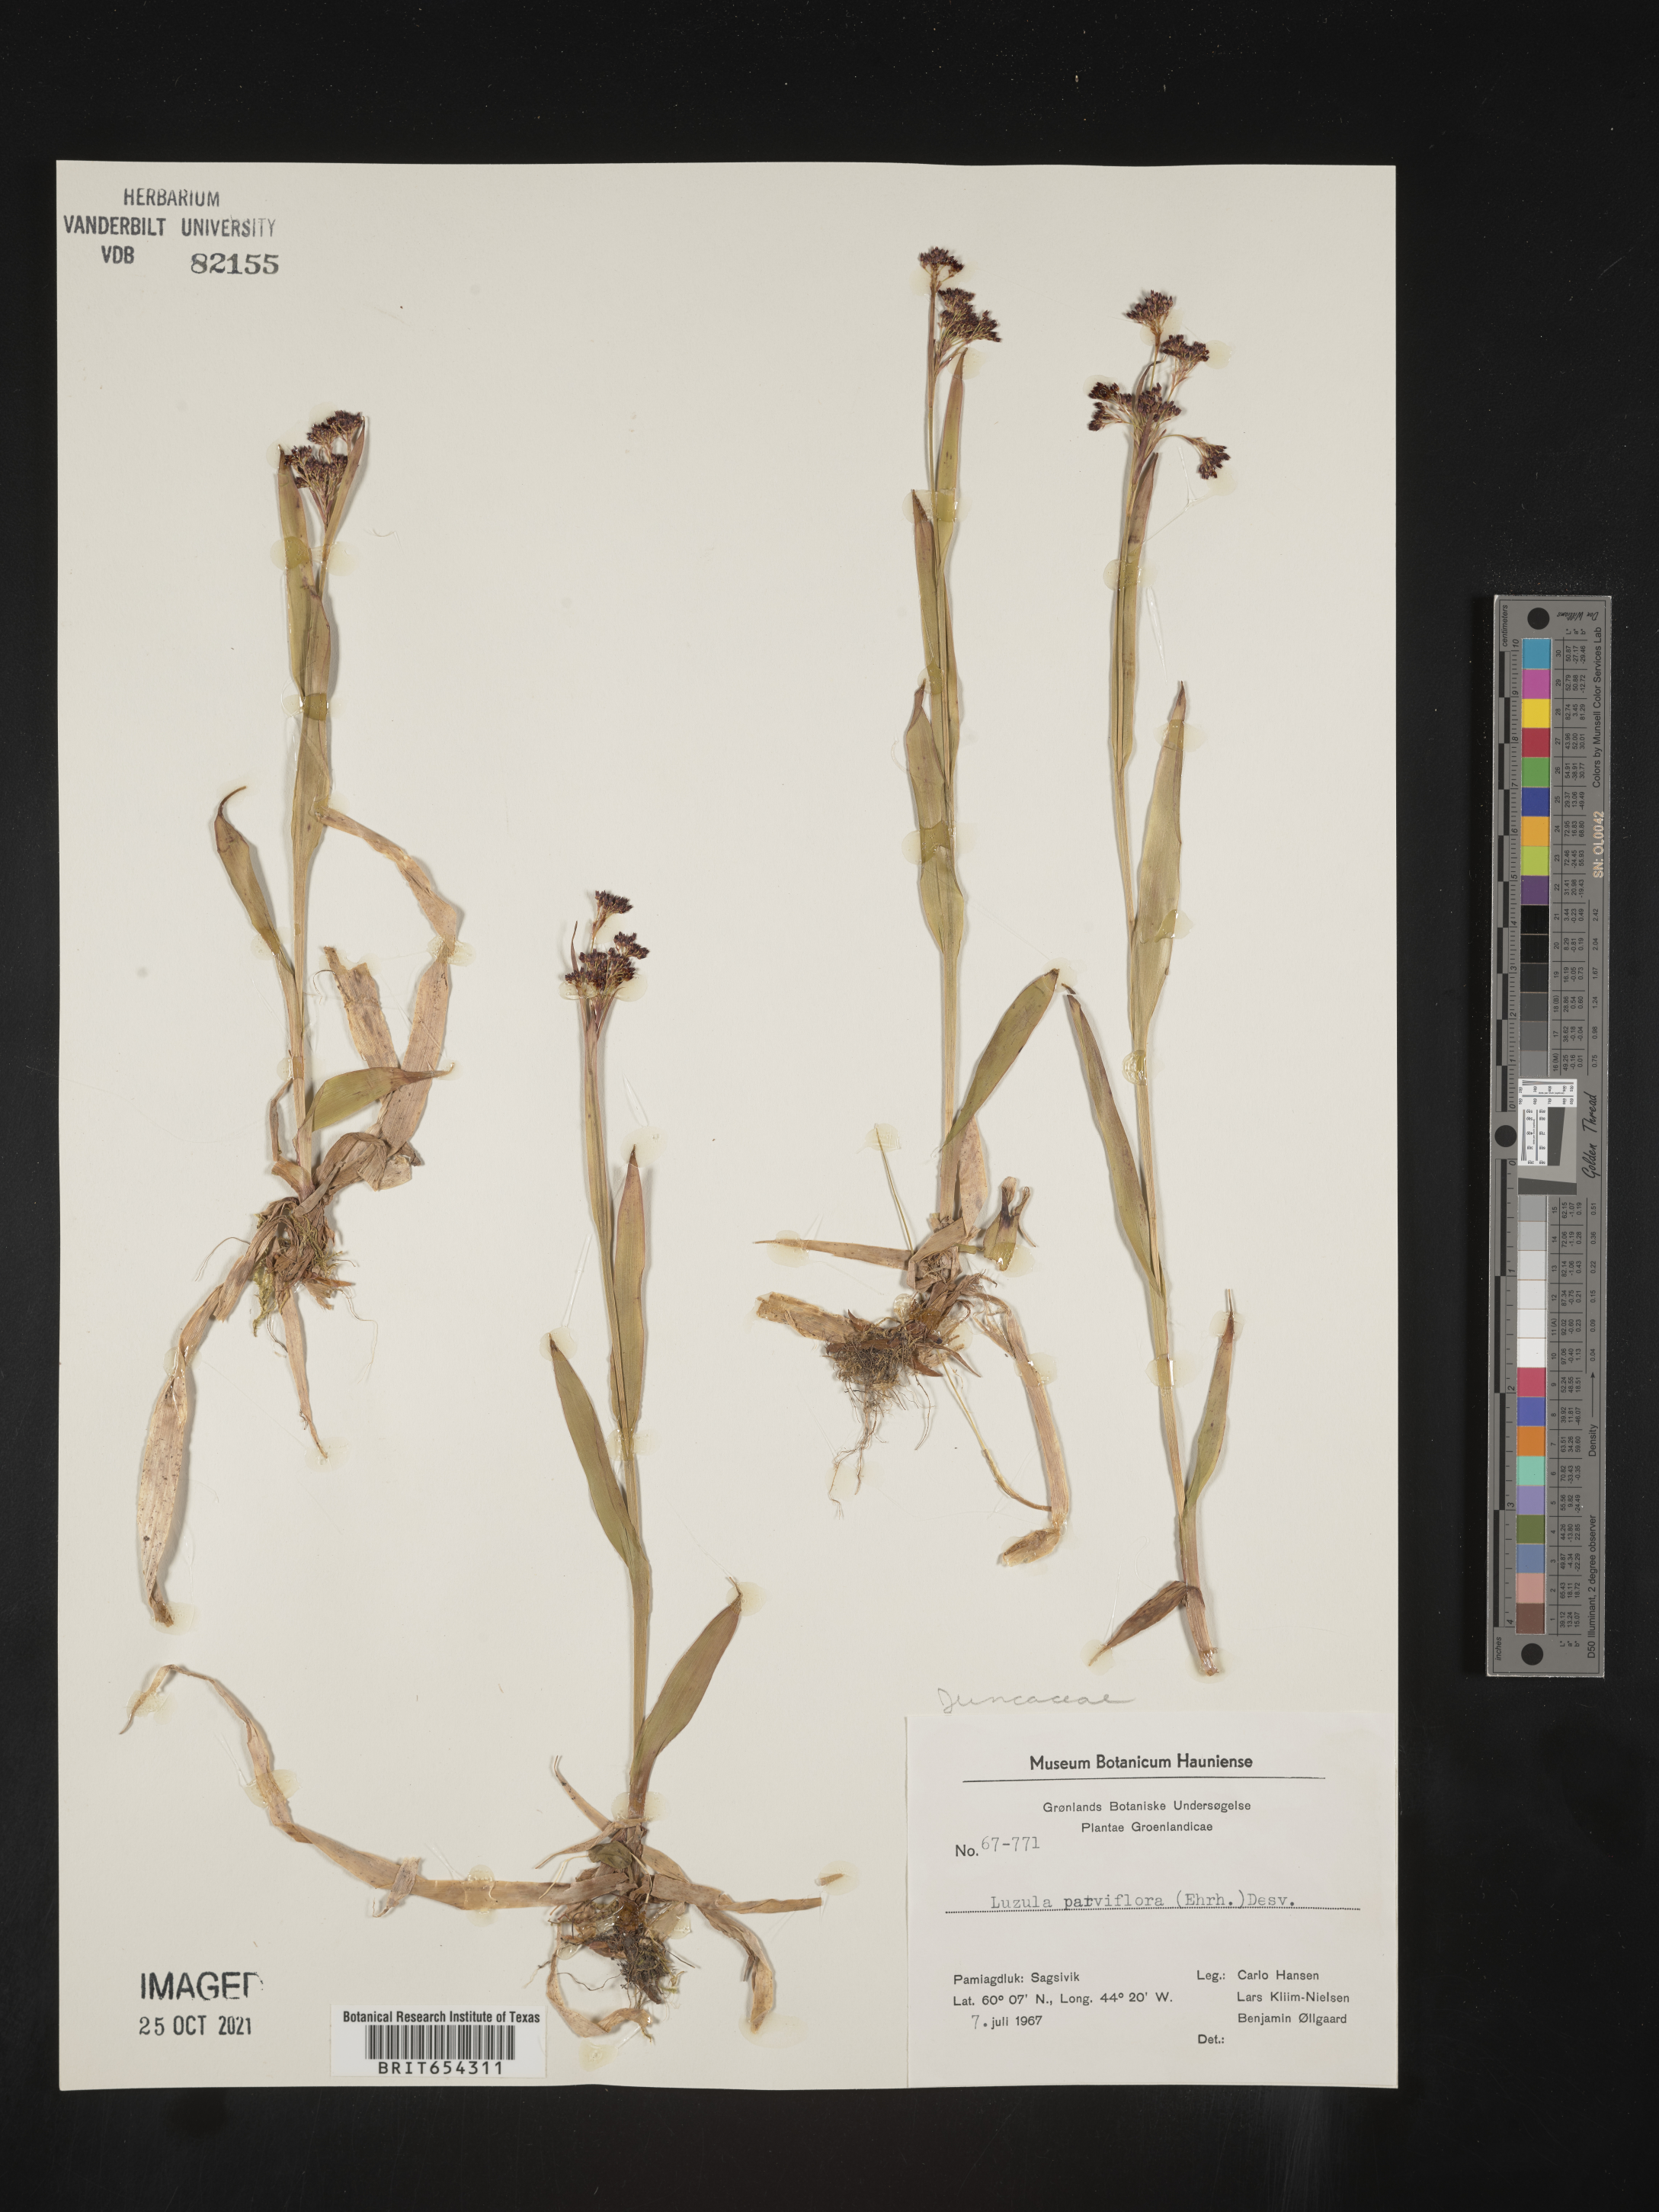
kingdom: Plantae
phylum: Tracheophyta
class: Liliopsida
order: Poales
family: Juncaceae
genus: Luzula
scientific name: Luzula
